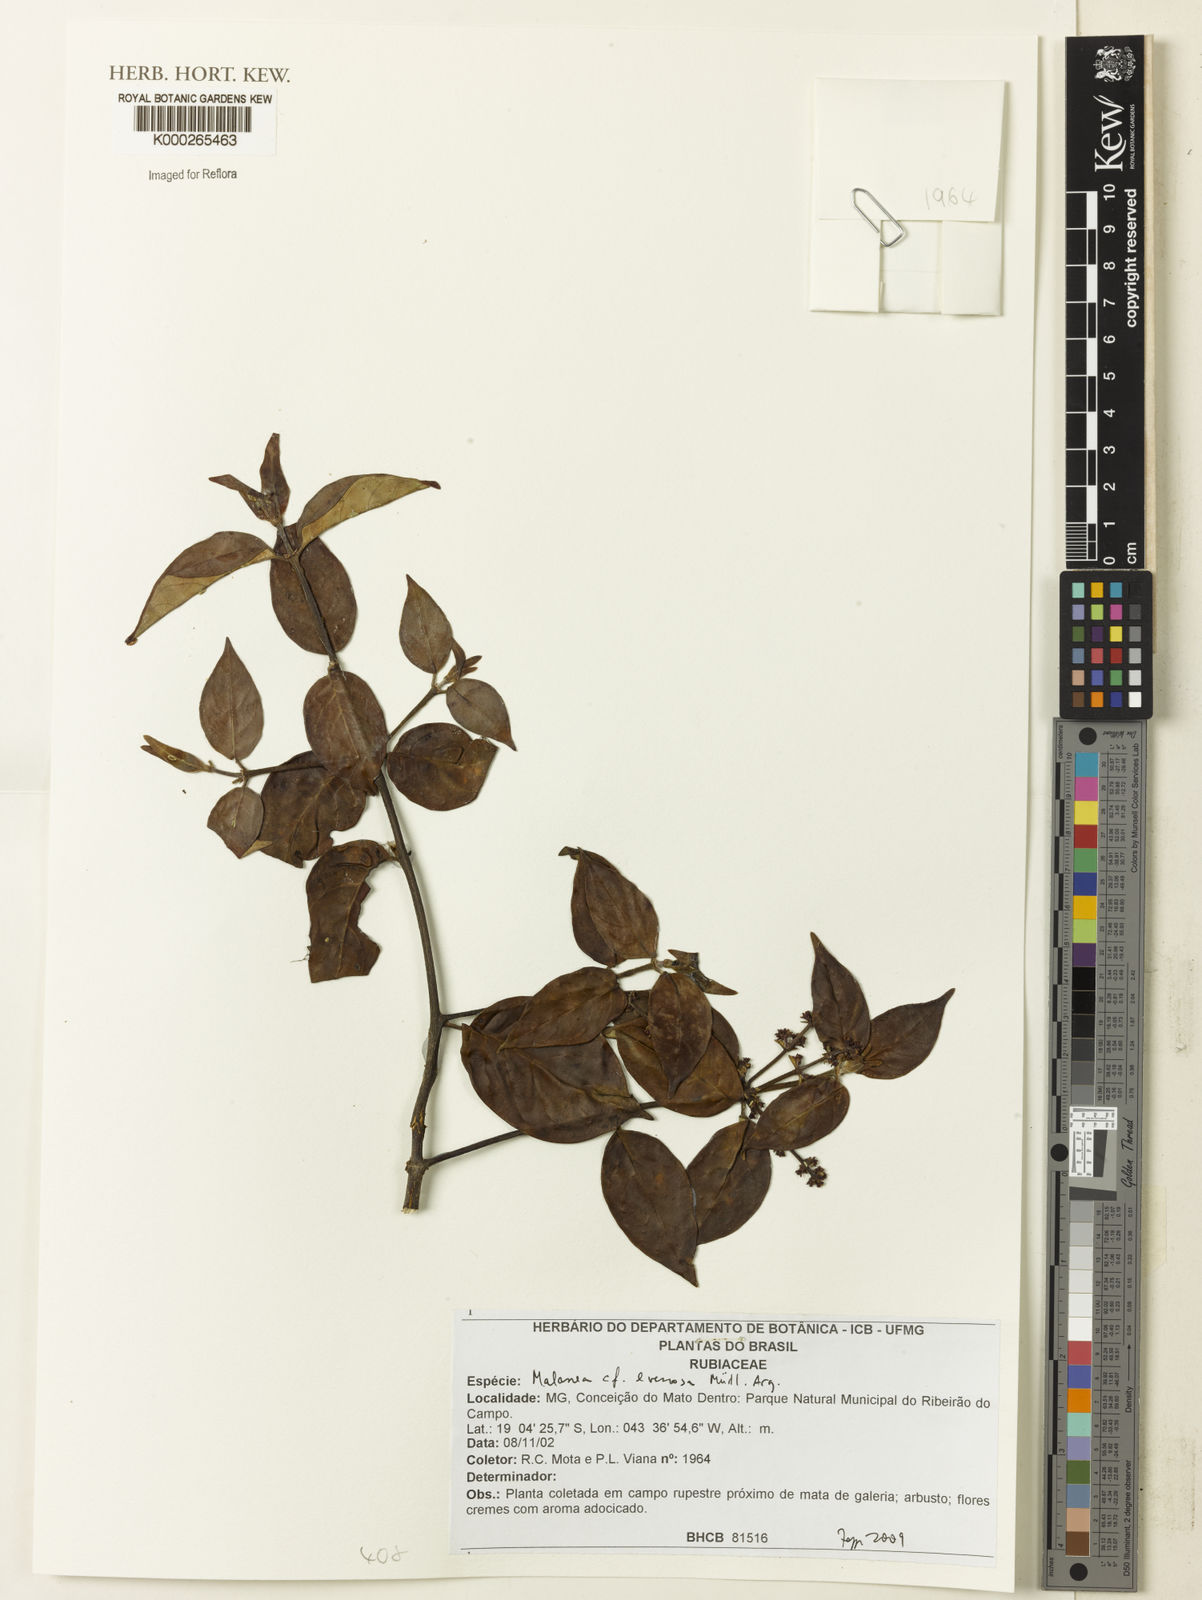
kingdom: Plantae
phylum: Tracheophyta
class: Magnoliopsida
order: Gentianales
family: Rubiaceae
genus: Malanea
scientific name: Malanea
